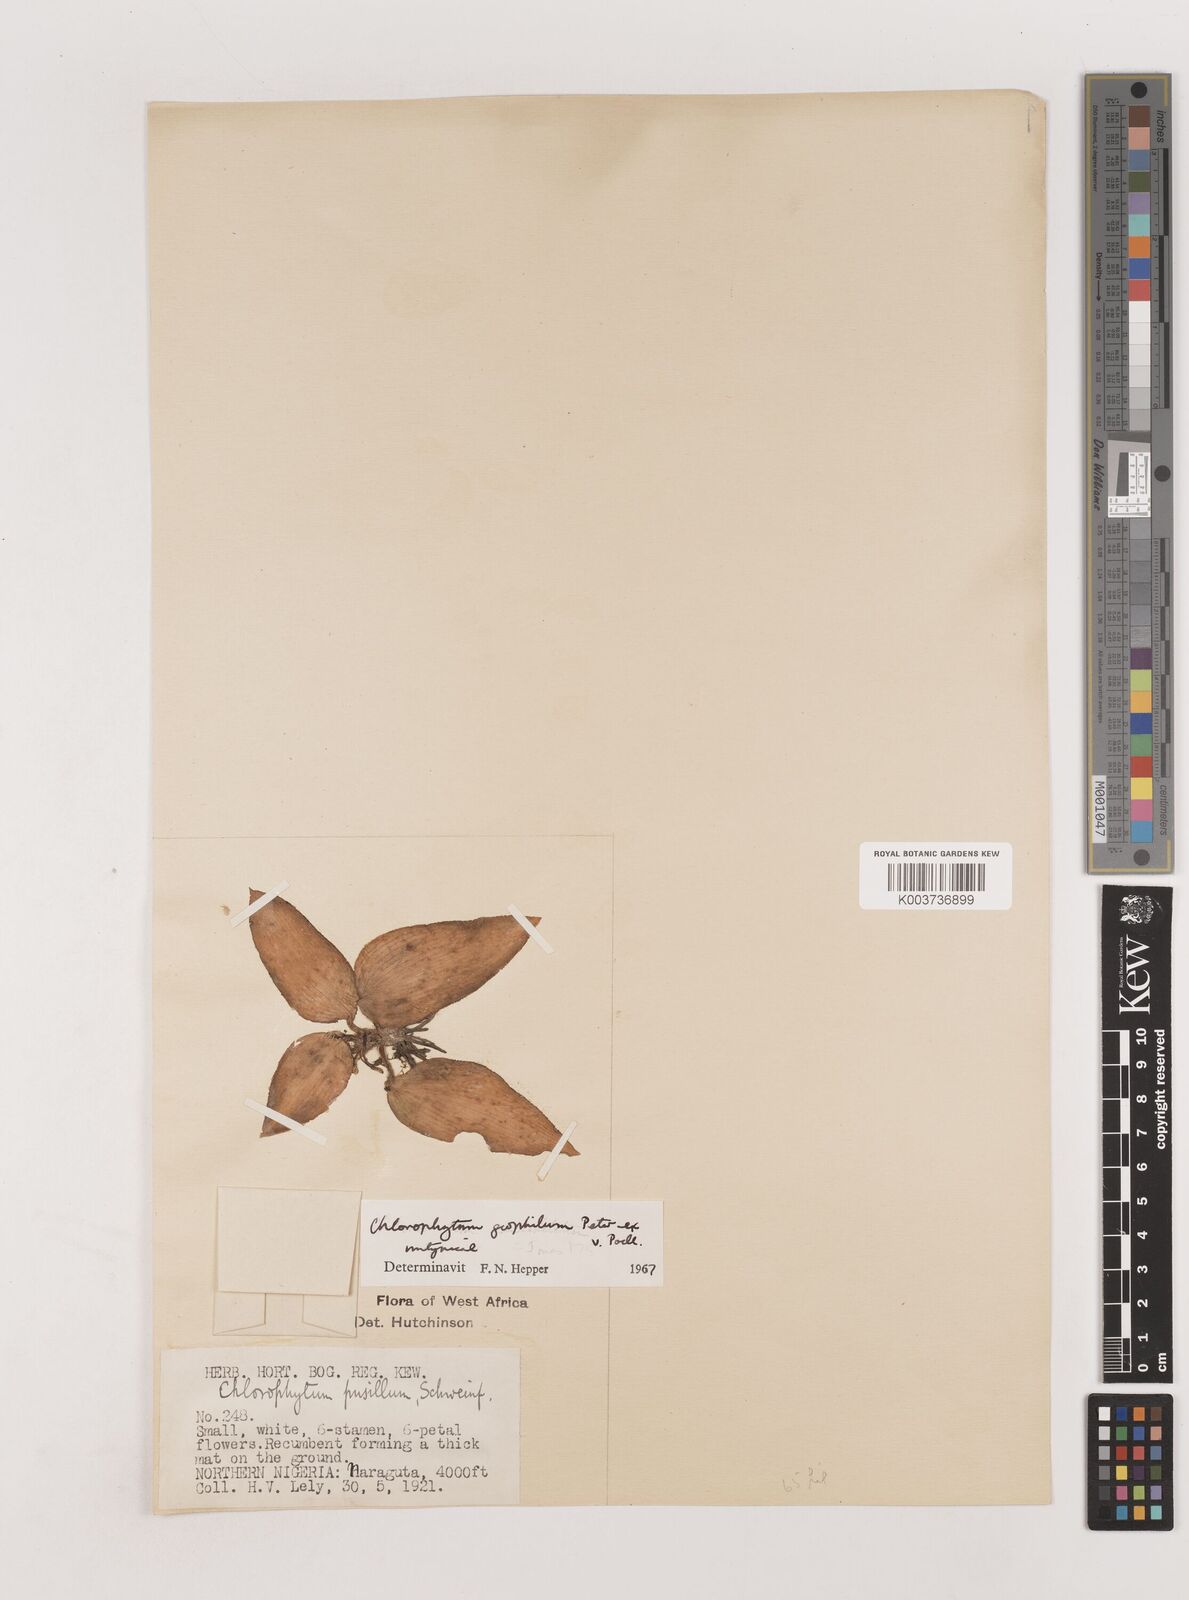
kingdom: Plantae
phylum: Tracheophyta
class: Liliopsida
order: Asparagales
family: Asparagaceae
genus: Chlorophytum
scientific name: Chlorophytum geophilum
